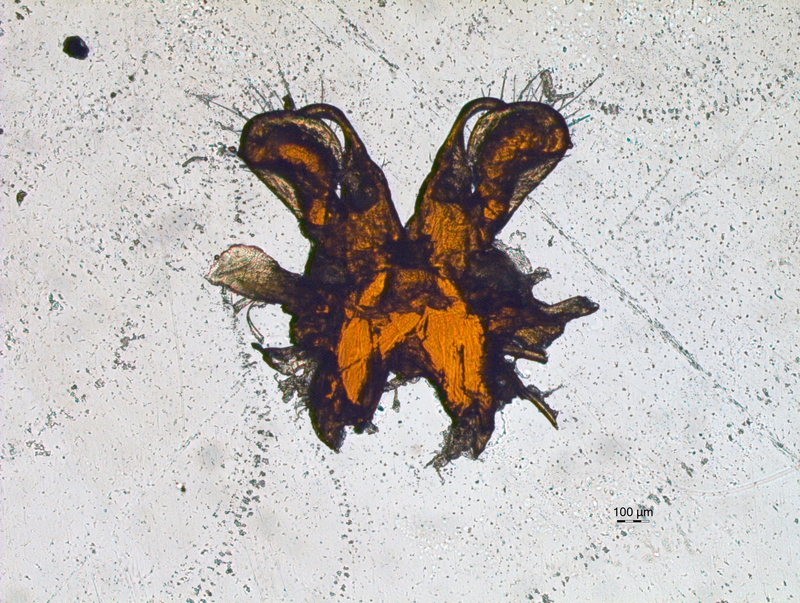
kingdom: Animalia
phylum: Arthropoda
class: Diplopoda
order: Chordeumatida
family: Chordeumatidae
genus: Mycogona
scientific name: Mycogona germanica
